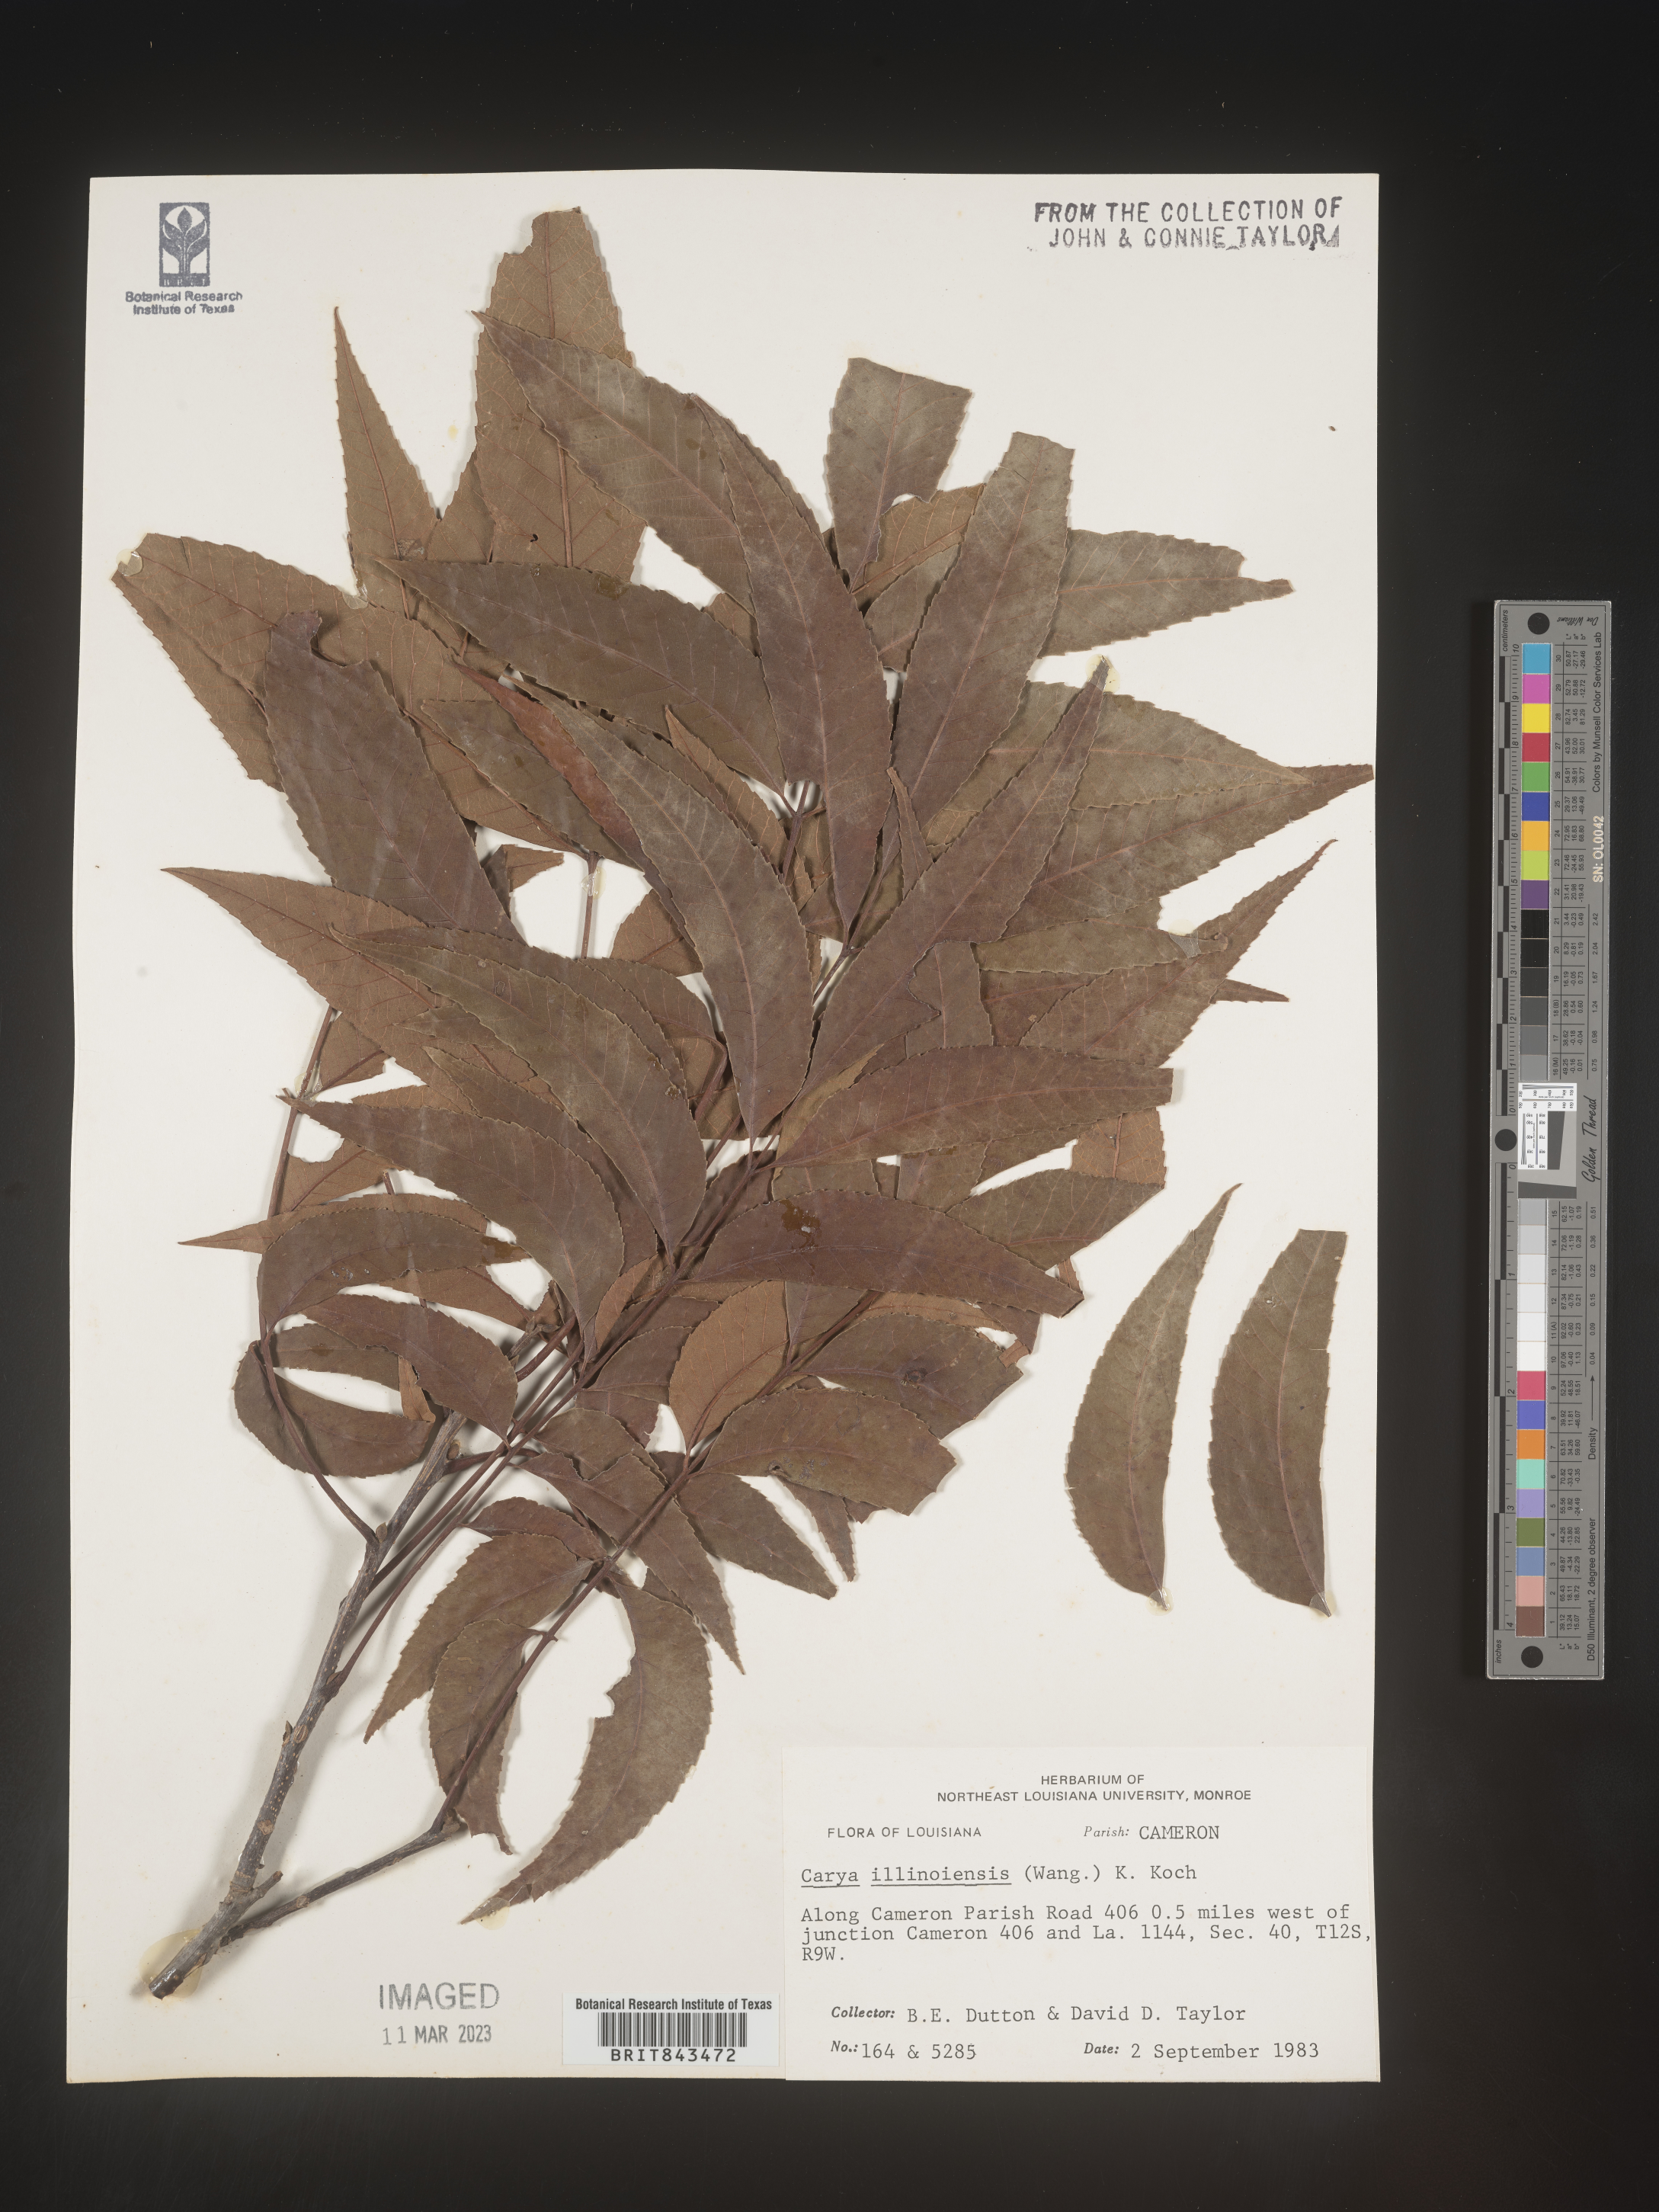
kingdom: Plantae
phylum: Tracheophyta
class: Magnoliopsida
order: Fagales
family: Juglandaceae
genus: Carya
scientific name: Carya illinoinensis
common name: Pecan
